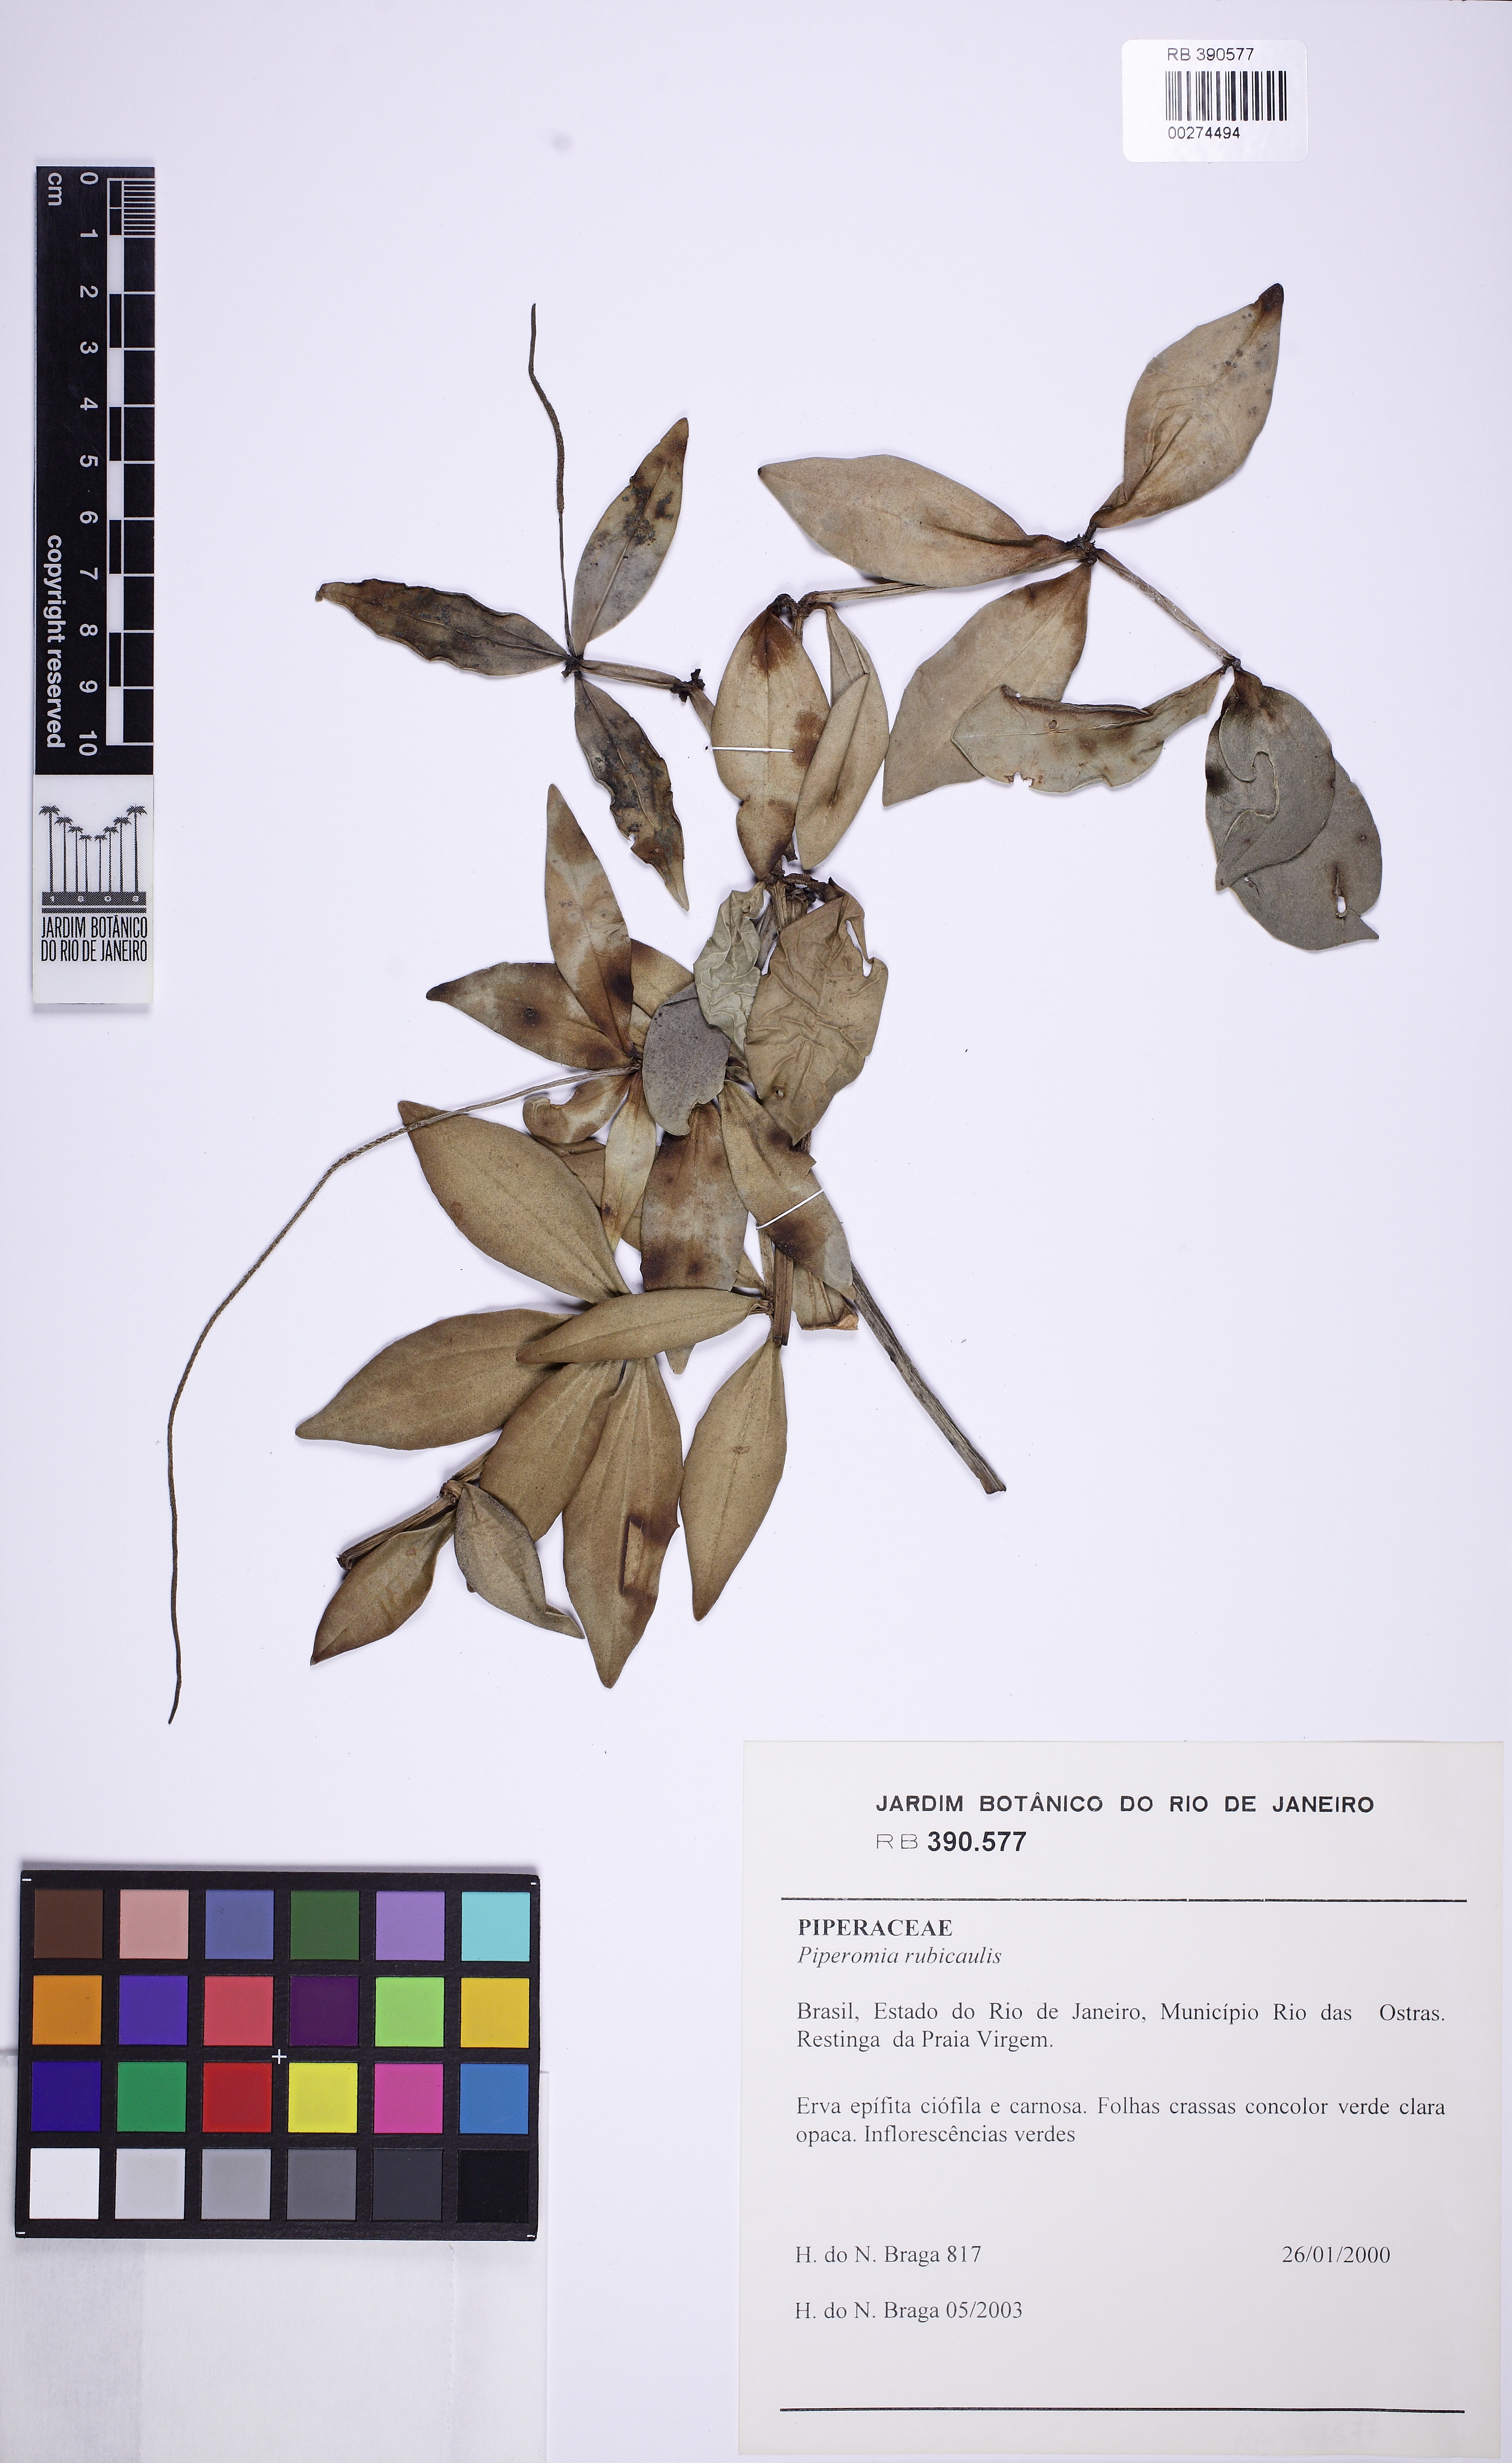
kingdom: Plantae
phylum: Tracheophyta
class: Magnoliopsida
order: Piperales
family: Piperaceae
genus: Peperomia
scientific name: Peperomia hirtellicaulis
